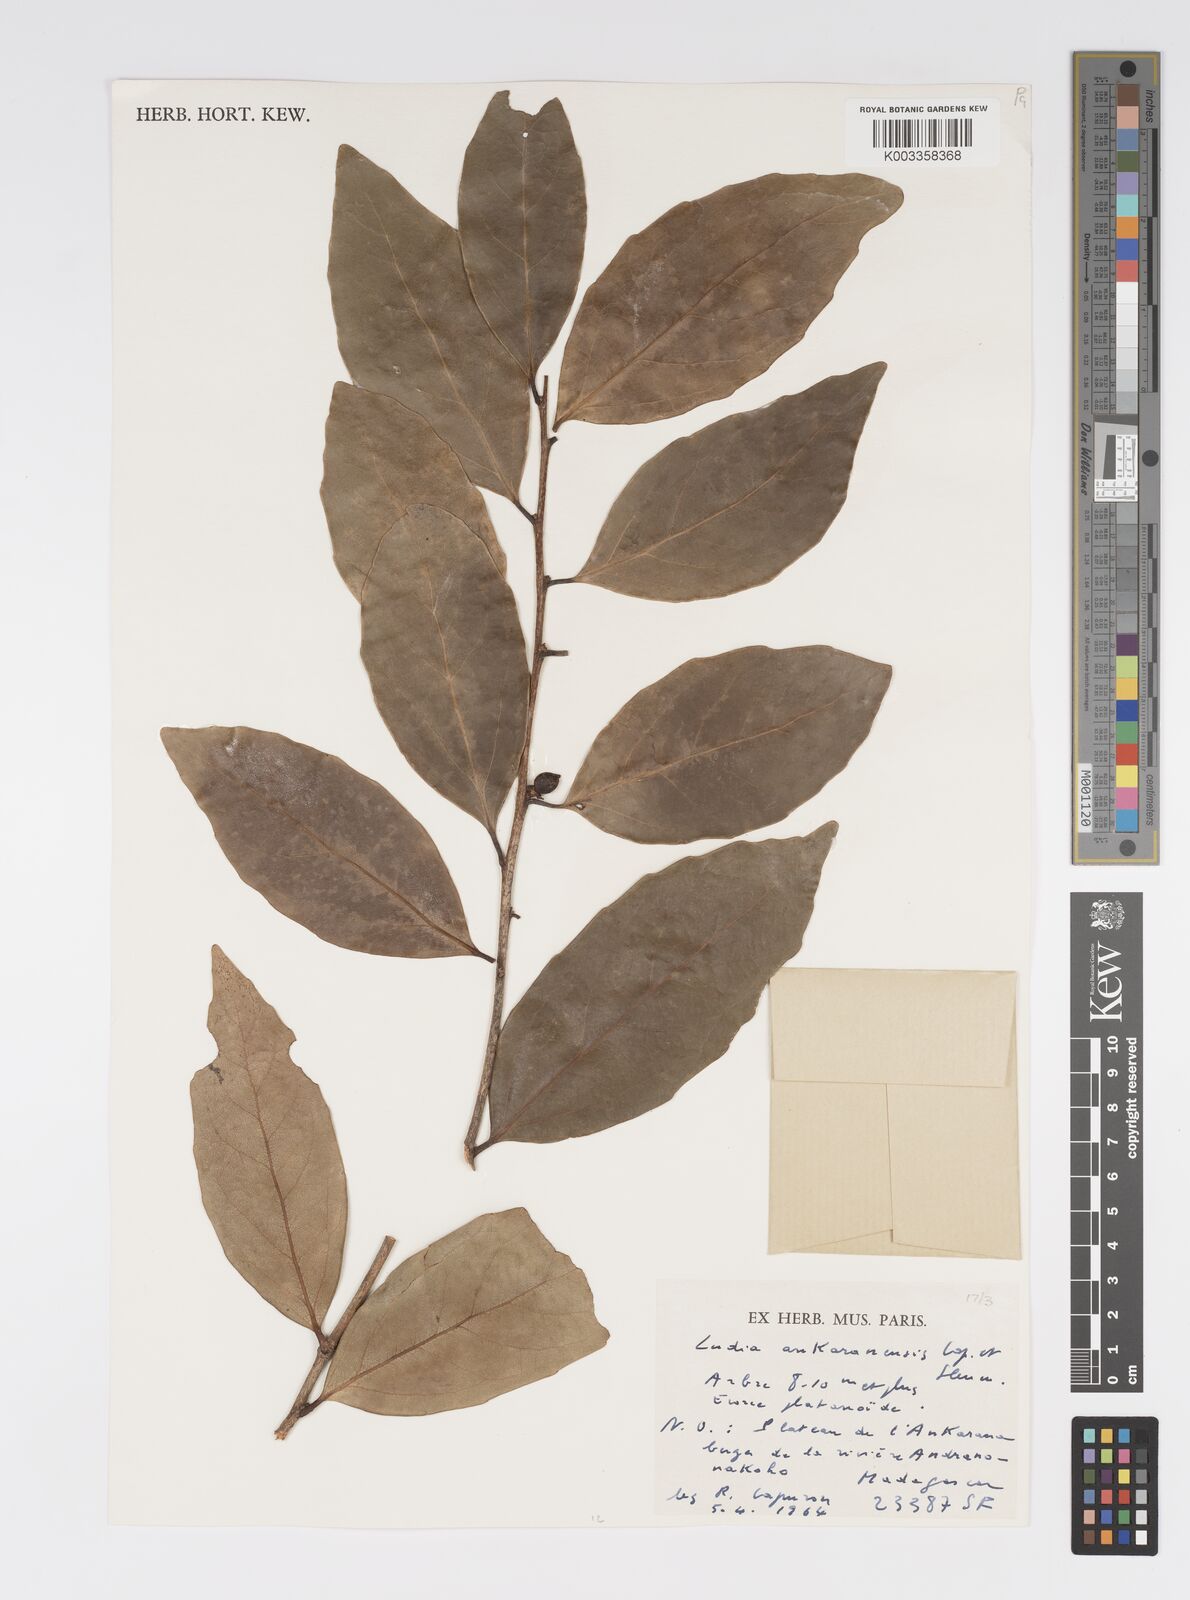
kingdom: Plantae
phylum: Tracheophyta
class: Magnoliopsida
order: Malpighiales
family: Salicaceae
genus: Ludia
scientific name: Ludia ankaranensis
